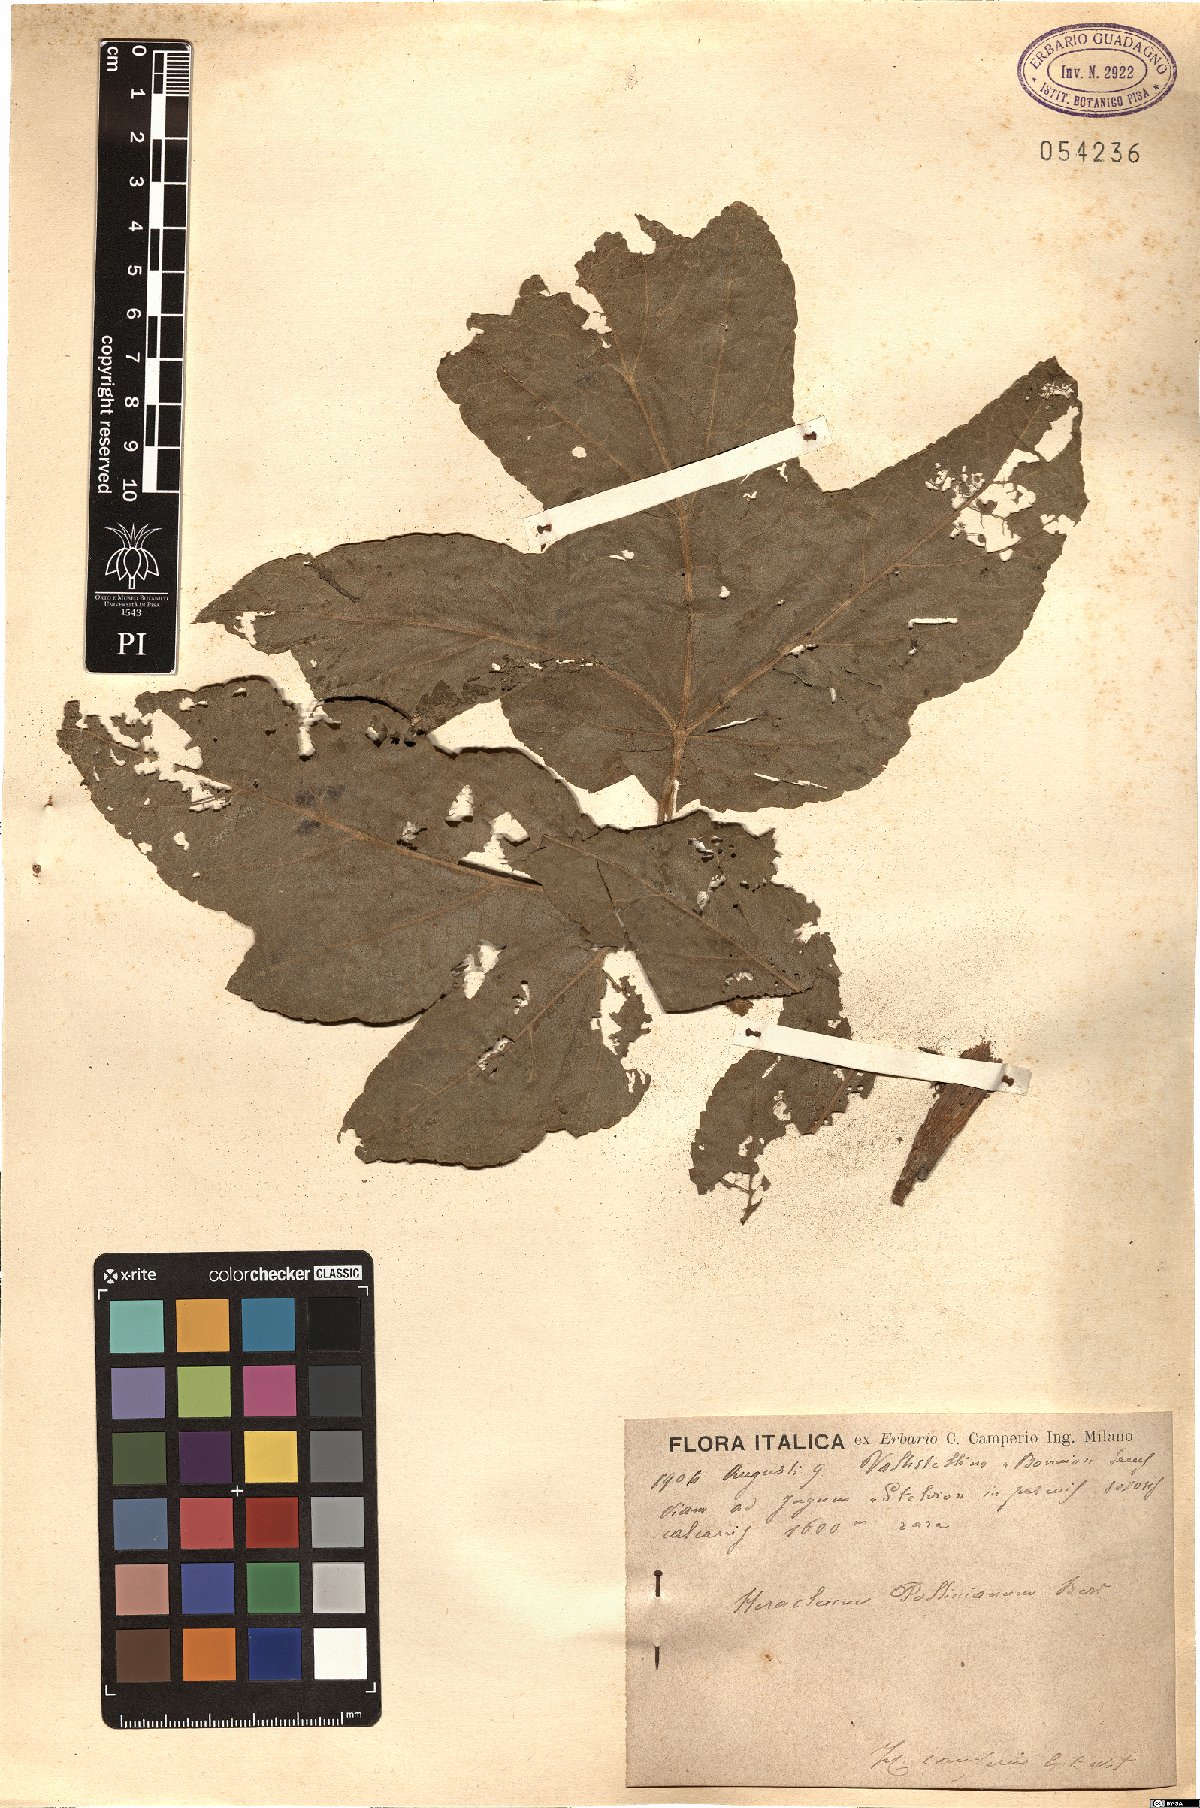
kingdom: Plantae
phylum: Tracheophyta
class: Magnoliopsida
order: Apiales
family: Apiaceae
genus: Heracleum
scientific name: Heracleum sphondylium
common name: Hogweed
